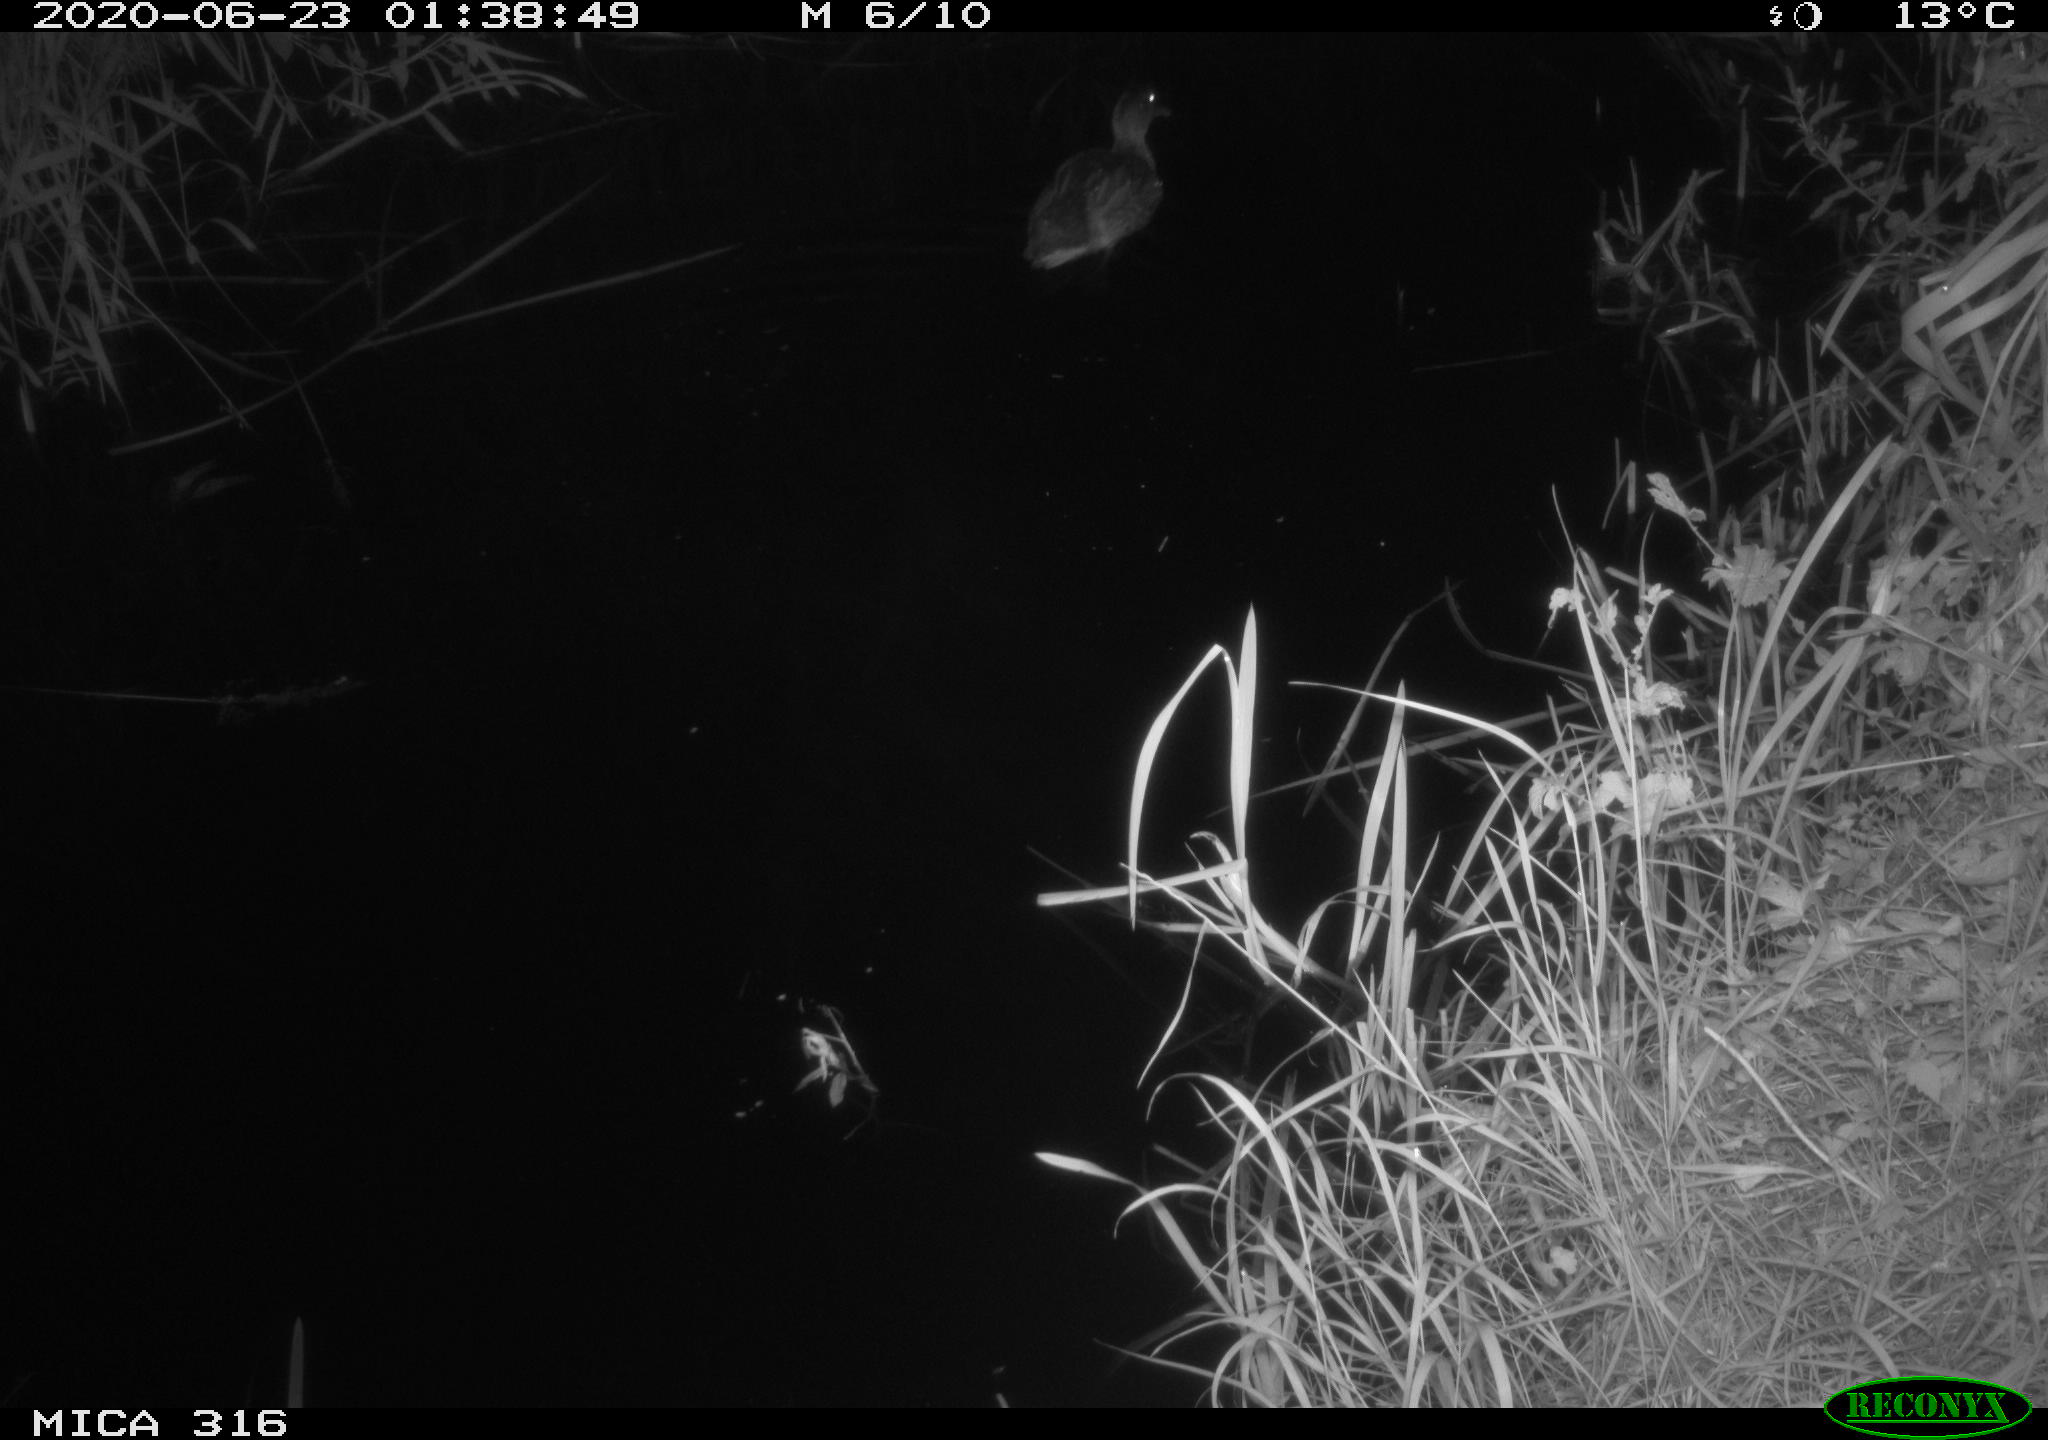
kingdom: Animalia
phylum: Chordata
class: Aves
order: Anseriformes
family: Anatidae
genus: Anas
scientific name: Anas platyrhynchos
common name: Mallard
